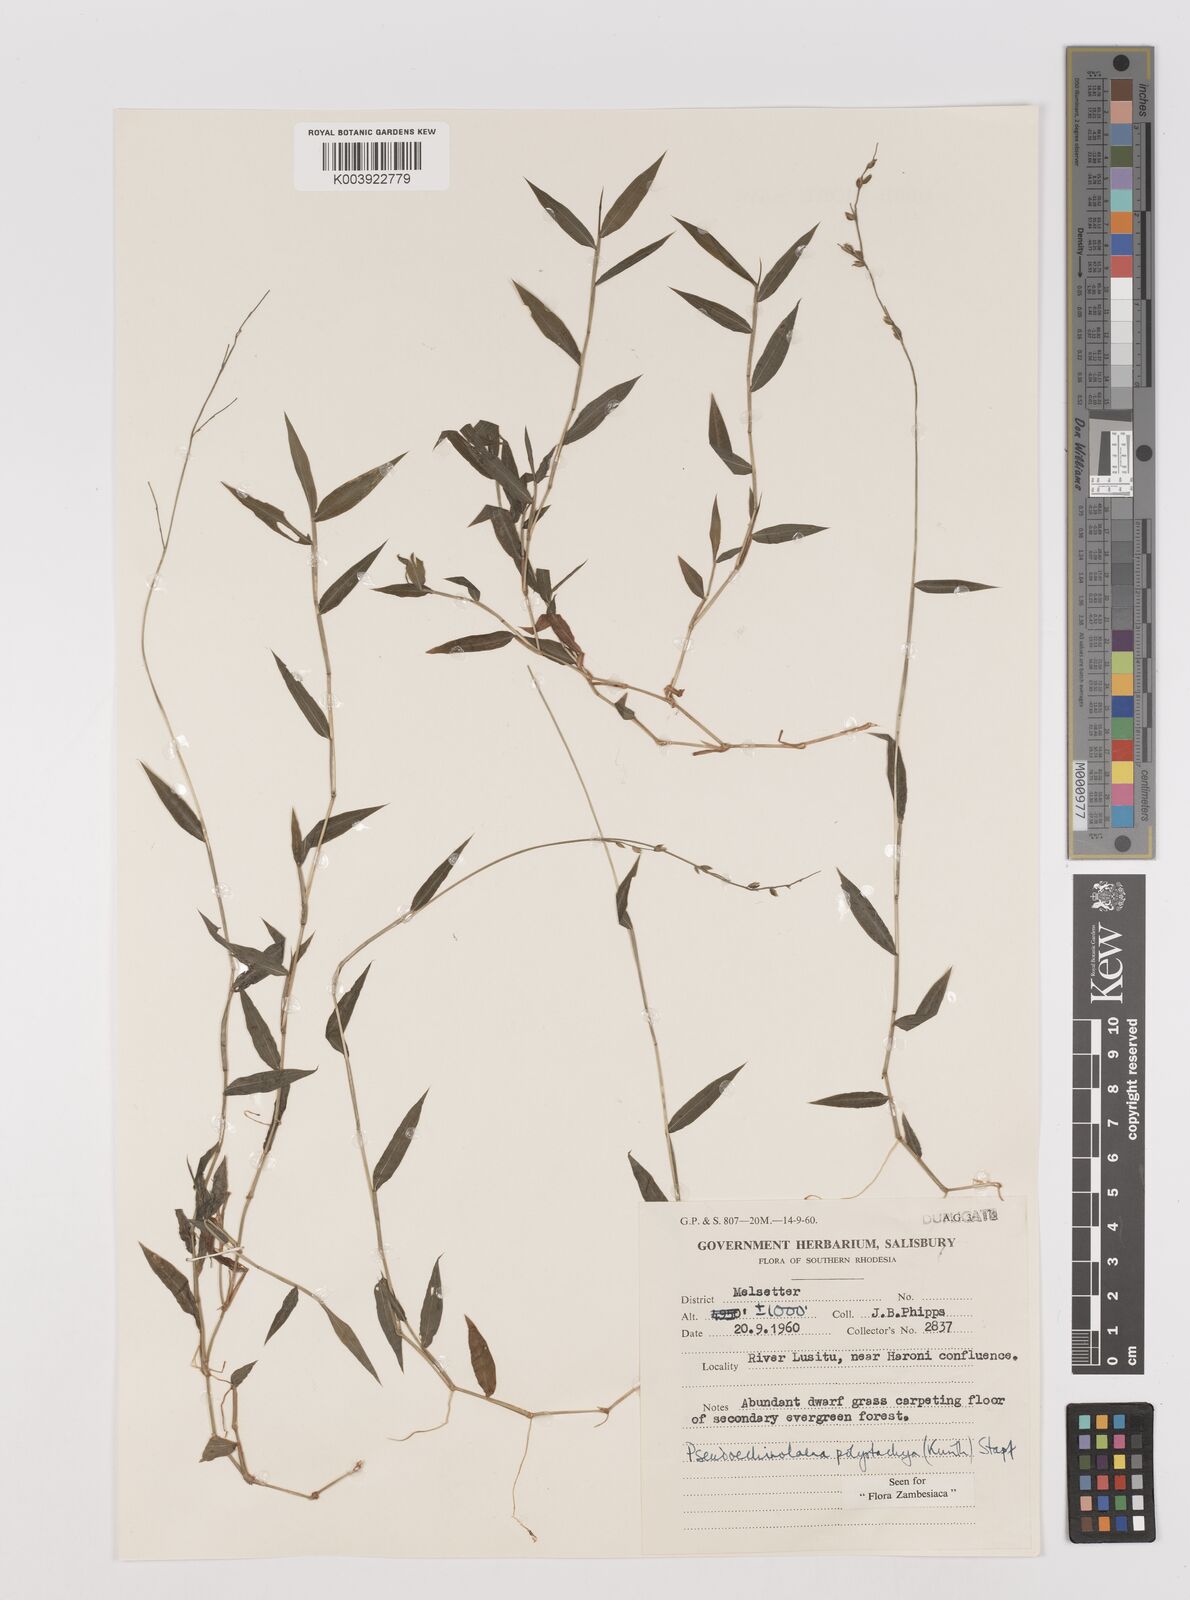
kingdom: Plantae
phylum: Tracheophyta
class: Liliopsida
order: Poales
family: Poaceae
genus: Pseudechinolaena
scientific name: Pseudechinolaena polystachya
